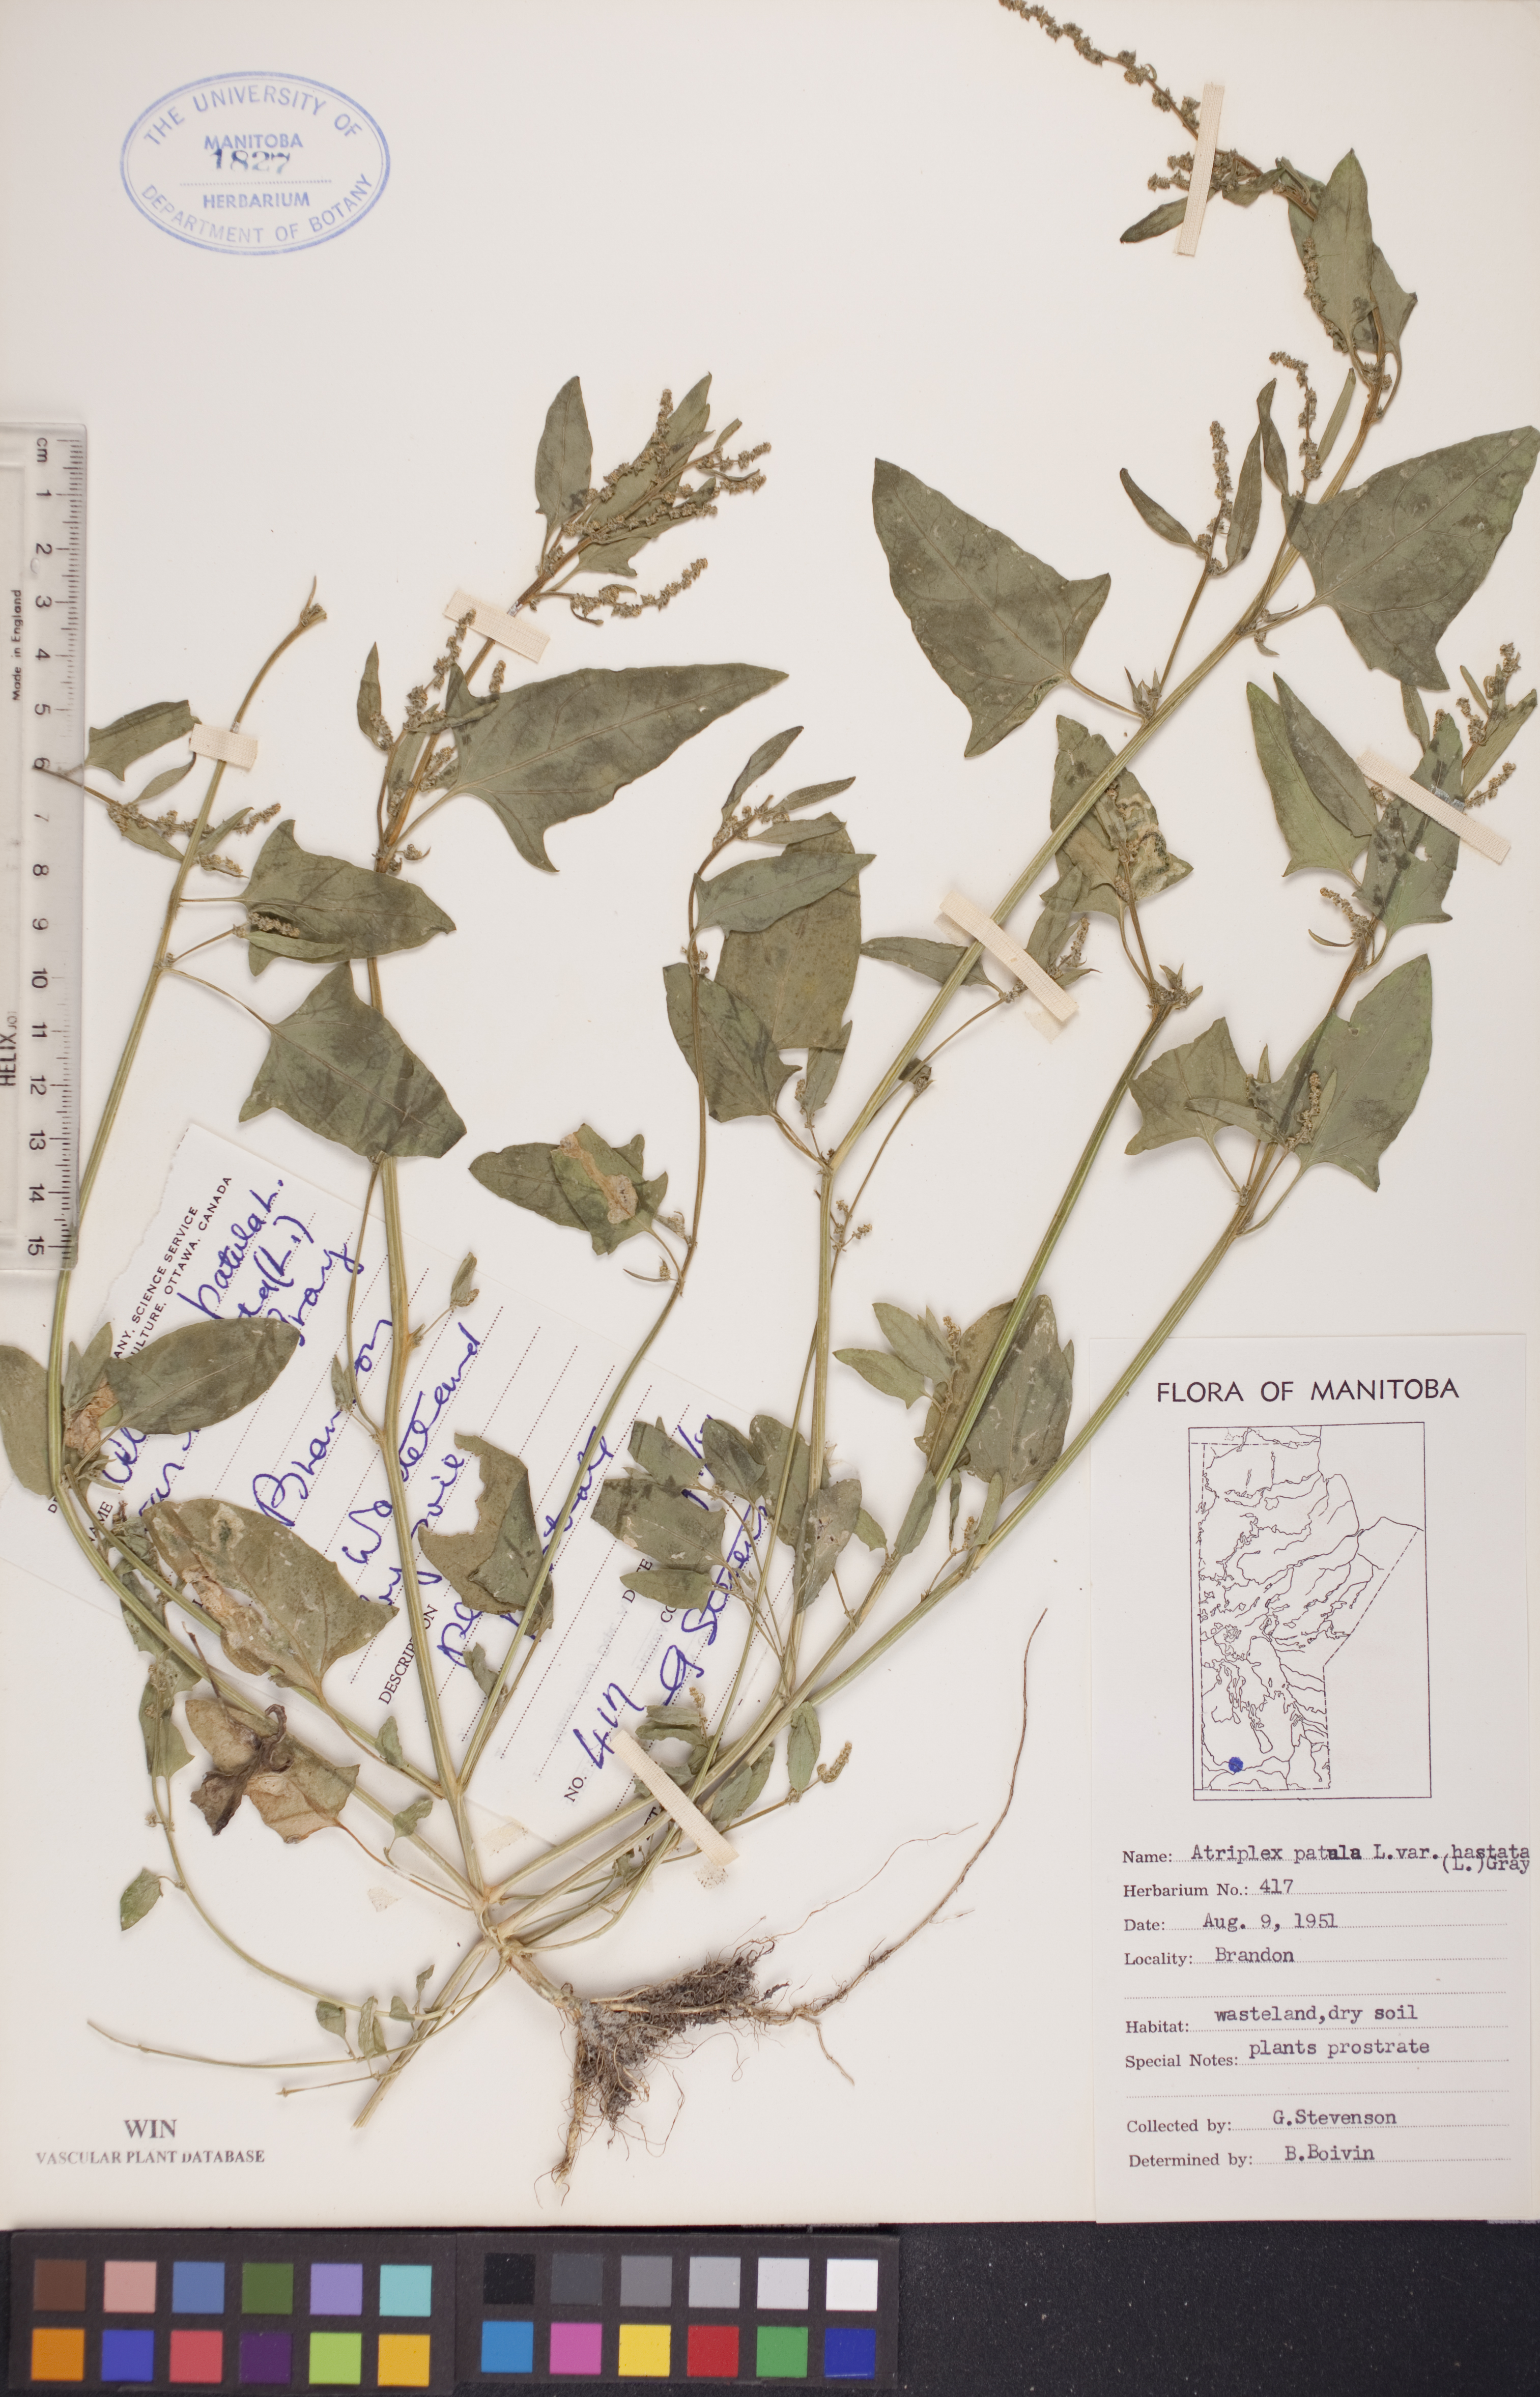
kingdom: Plantae
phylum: Tracheophyta
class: Magnoliopsida
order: Caryophyllales
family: Amaranthaceae
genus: Atriplex
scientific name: Atriplex
